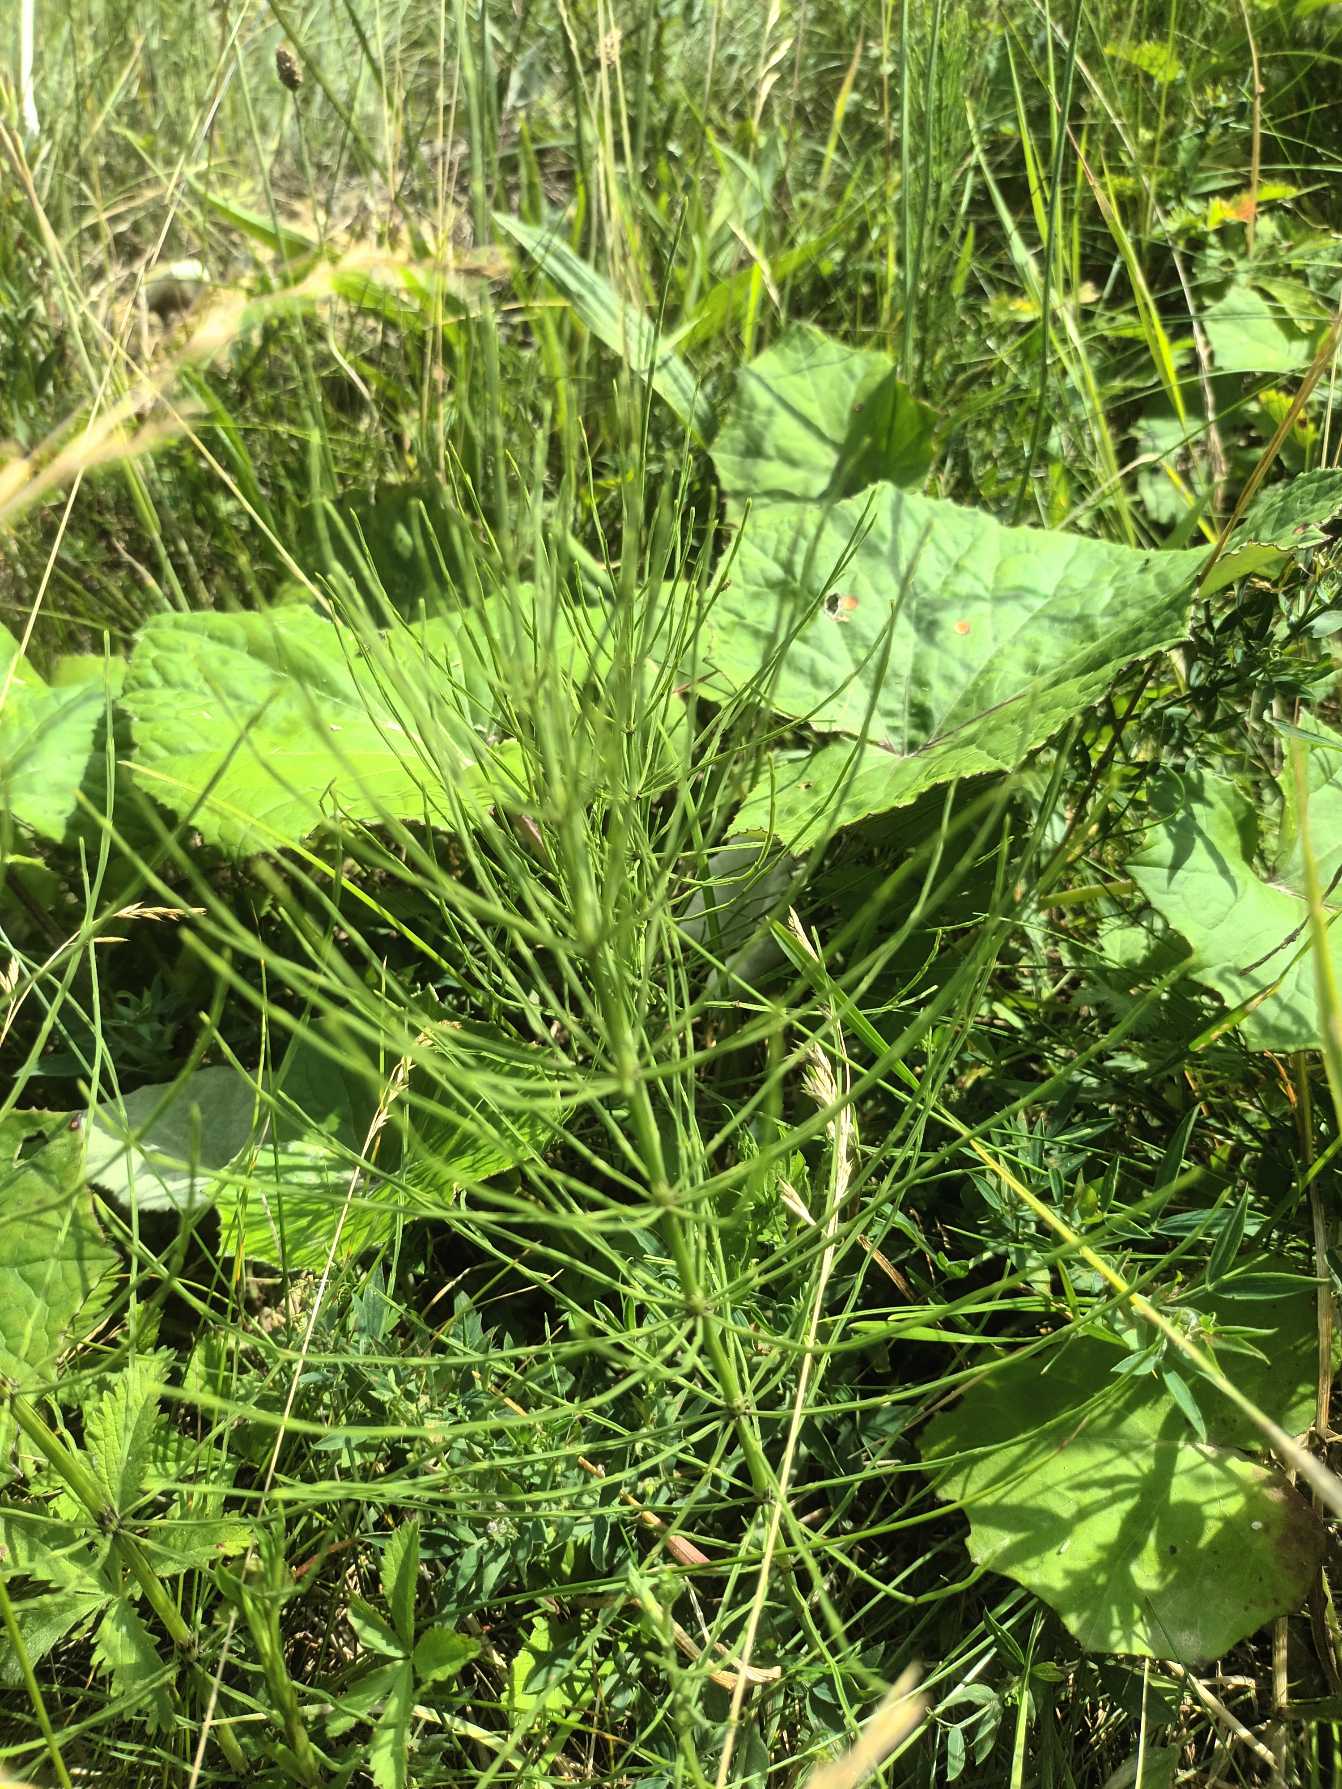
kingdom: Plantae
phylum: Tracheophyta
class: Polypodiopsida
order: Equisetales
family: Equisetaceae
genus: Equisetum
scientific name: Equisetum arvense
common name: Ager-padderok
